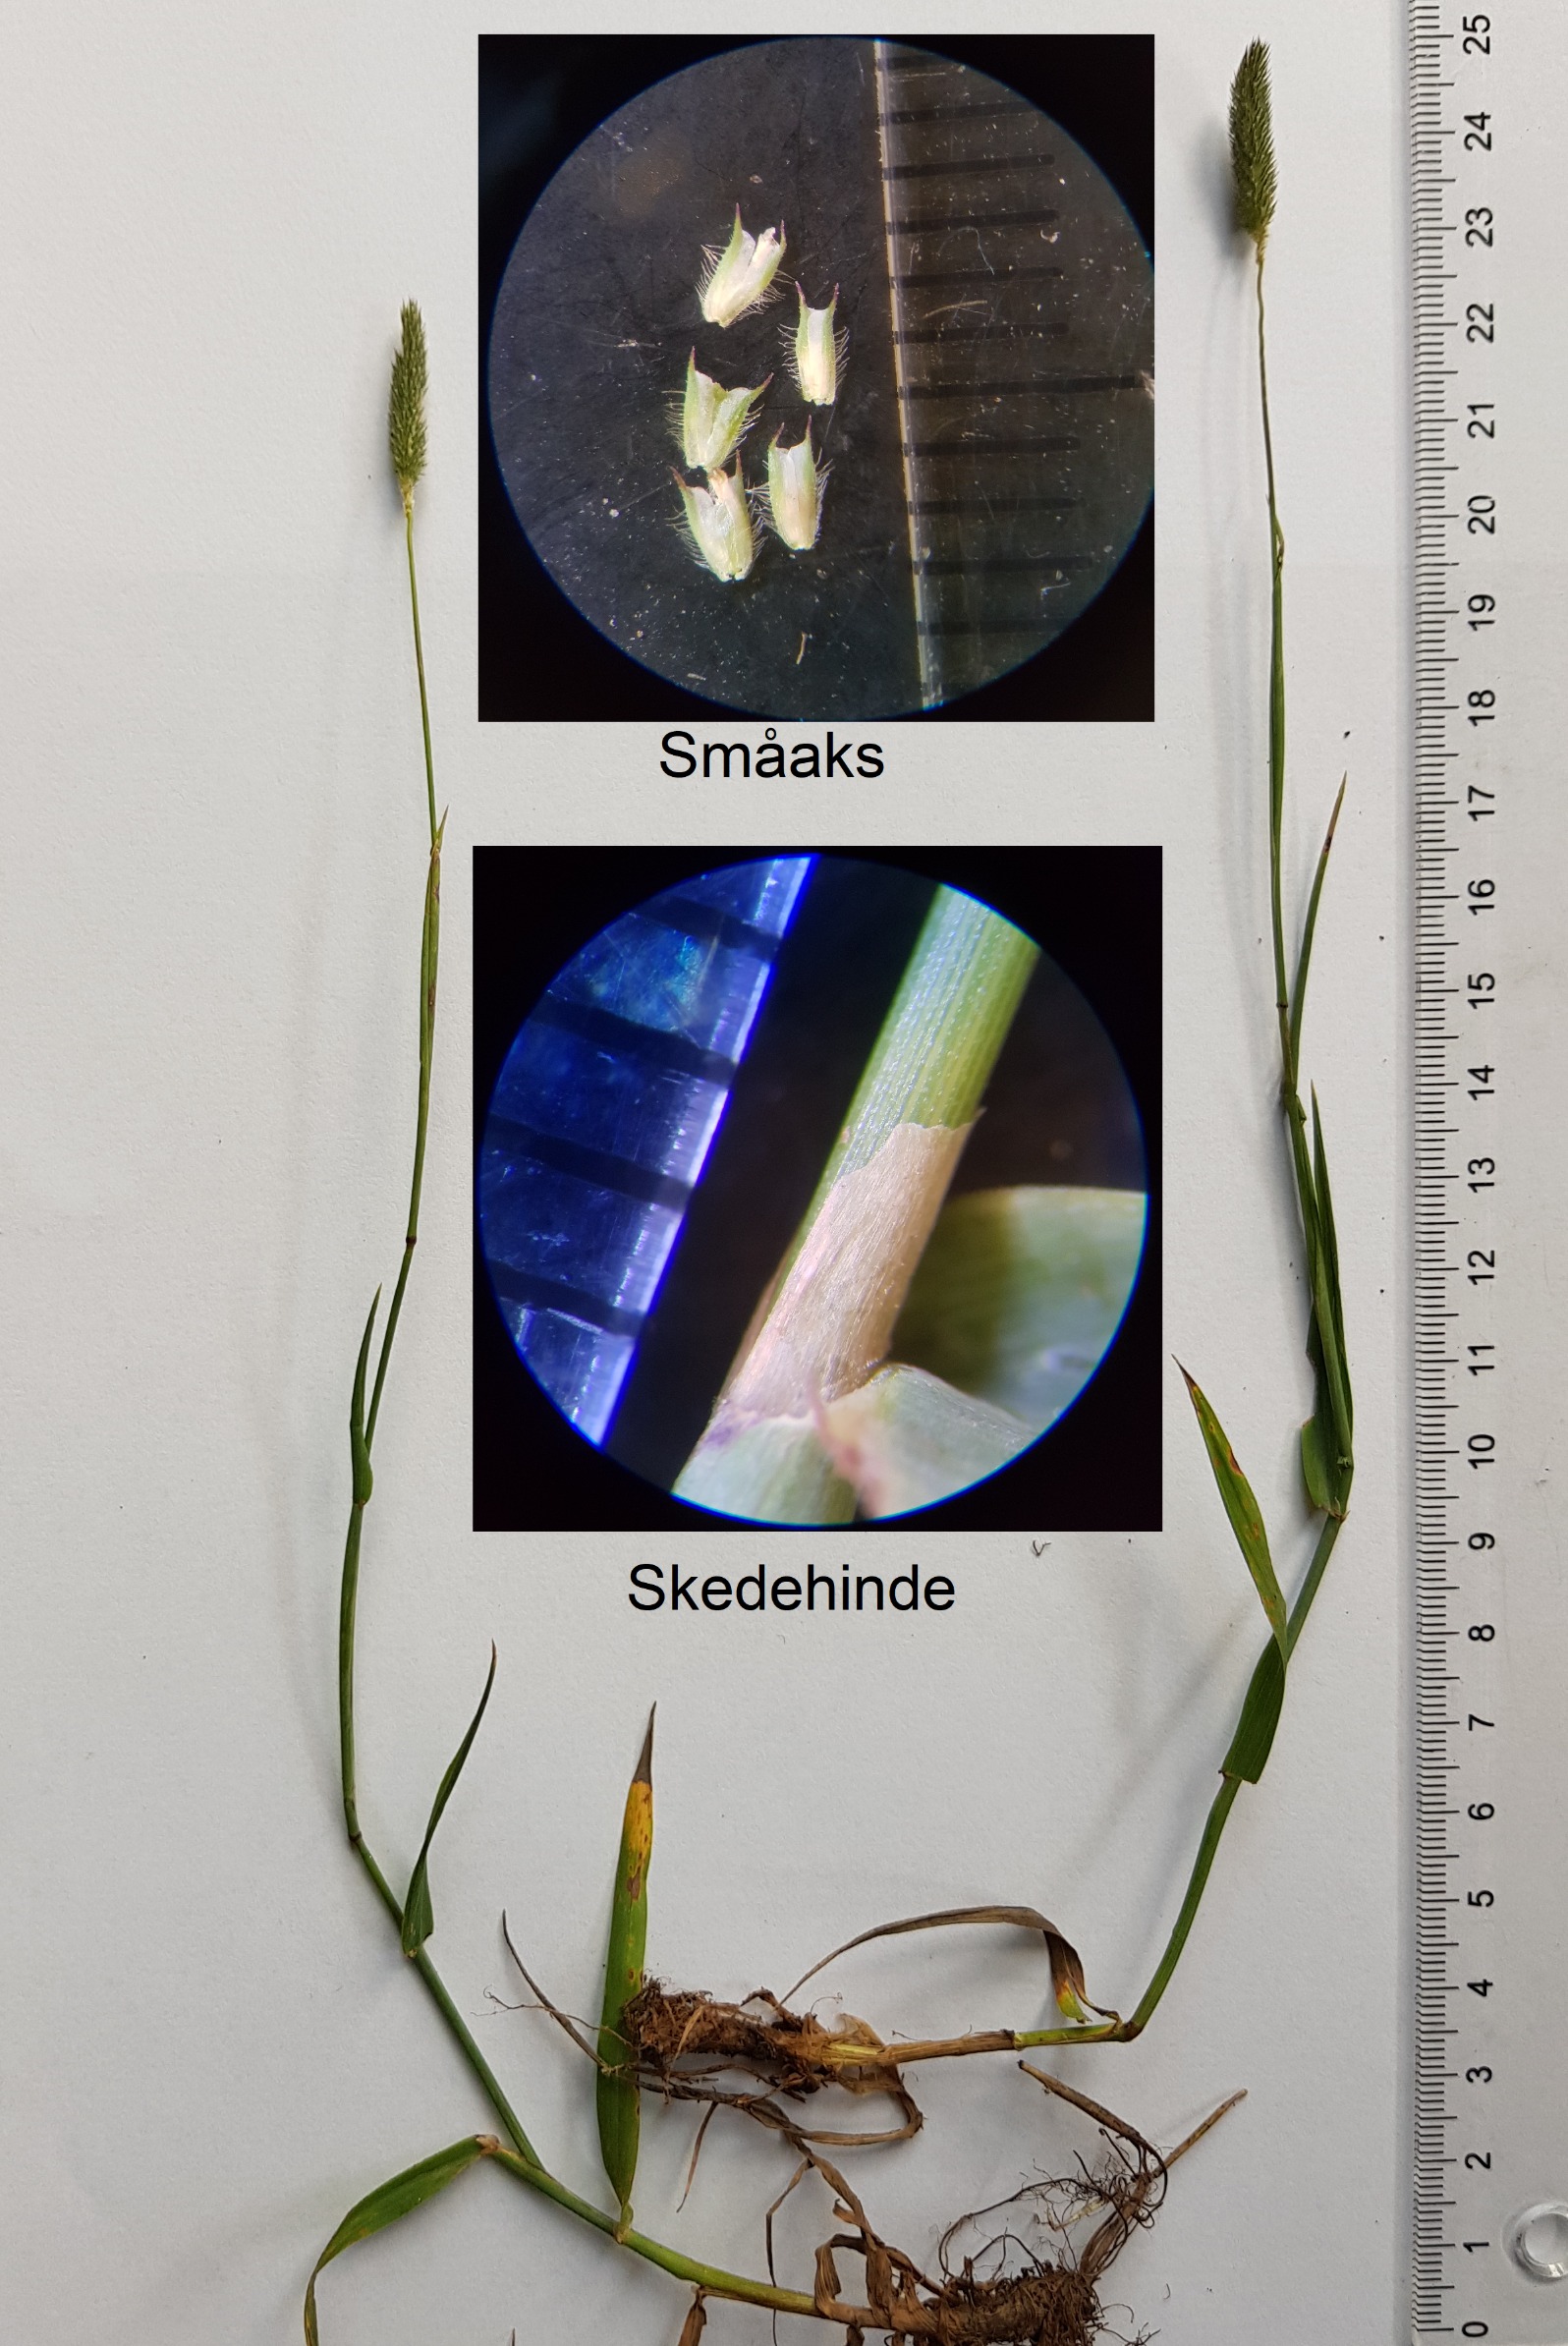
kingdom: Plantae
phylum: Tracheophyta
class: Liliopsida
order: Poales
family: Poaceae
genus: Phleum
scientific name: Phleum pratense
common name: Eng-rottehale
